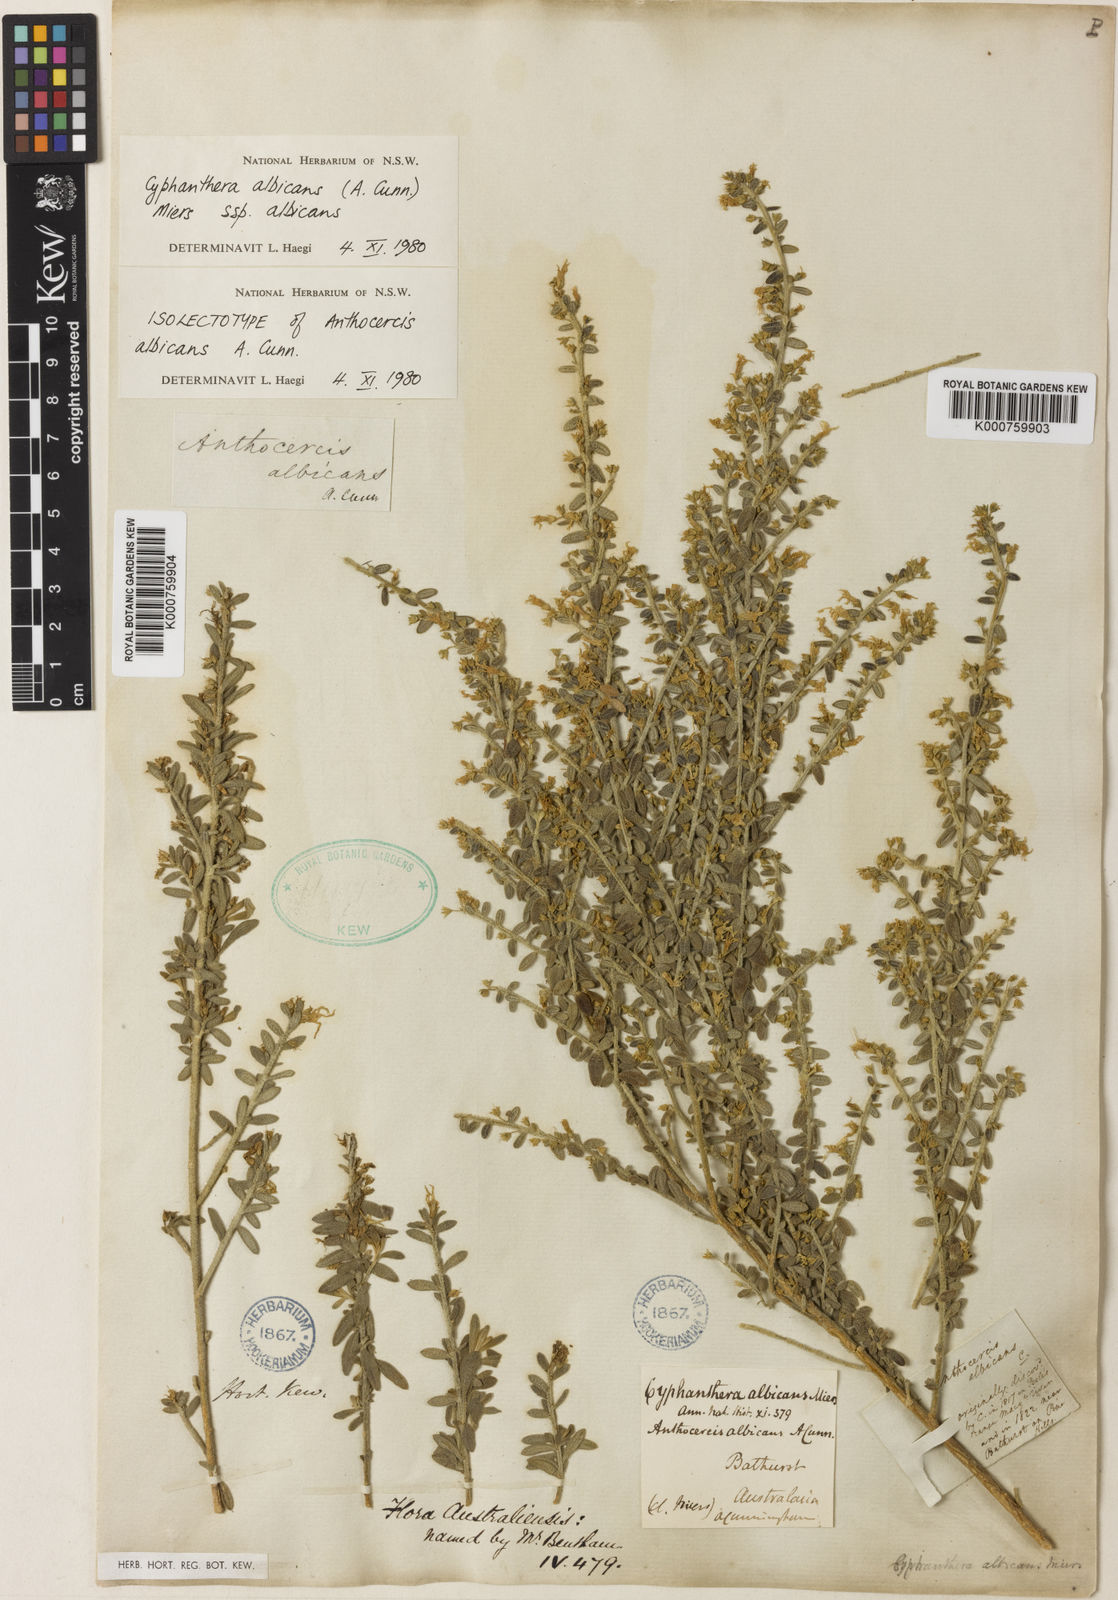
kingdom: Plantae
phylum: Tracheophyta
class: Magnoliopsida
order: Solanales
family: Solanaceae
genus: Cyphanthera
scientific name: Cyphanthera albicans
